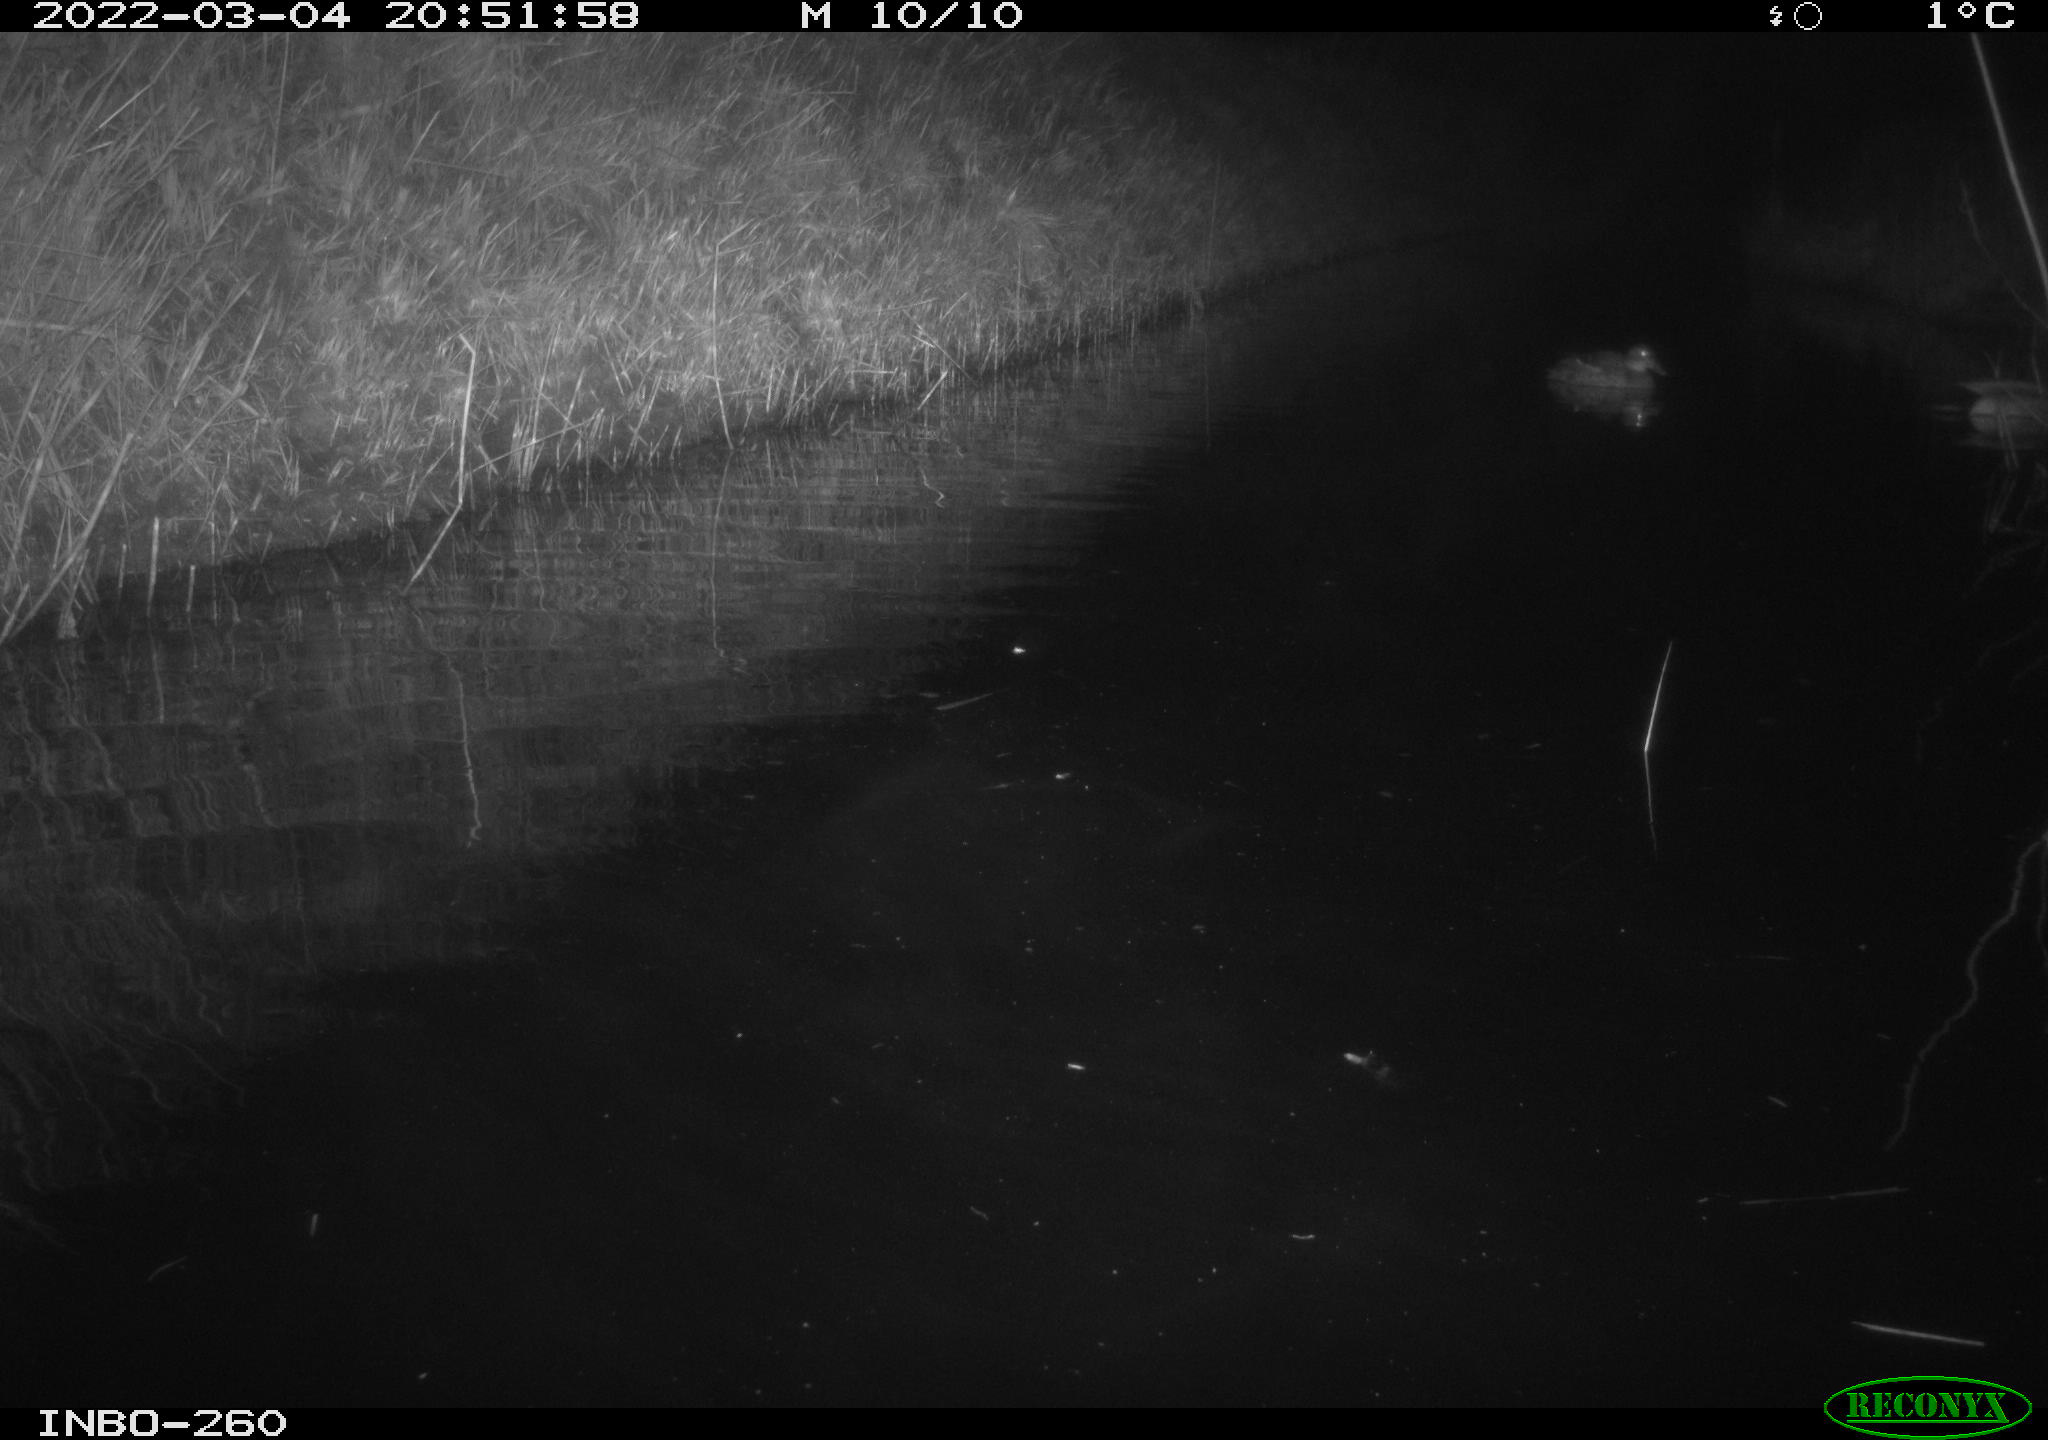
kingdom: Animalia
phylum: Chordata
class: Aves
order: Anseriformes
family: Anatidae
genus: Anas
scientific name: Anas platyrhynchos
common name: Mallard
